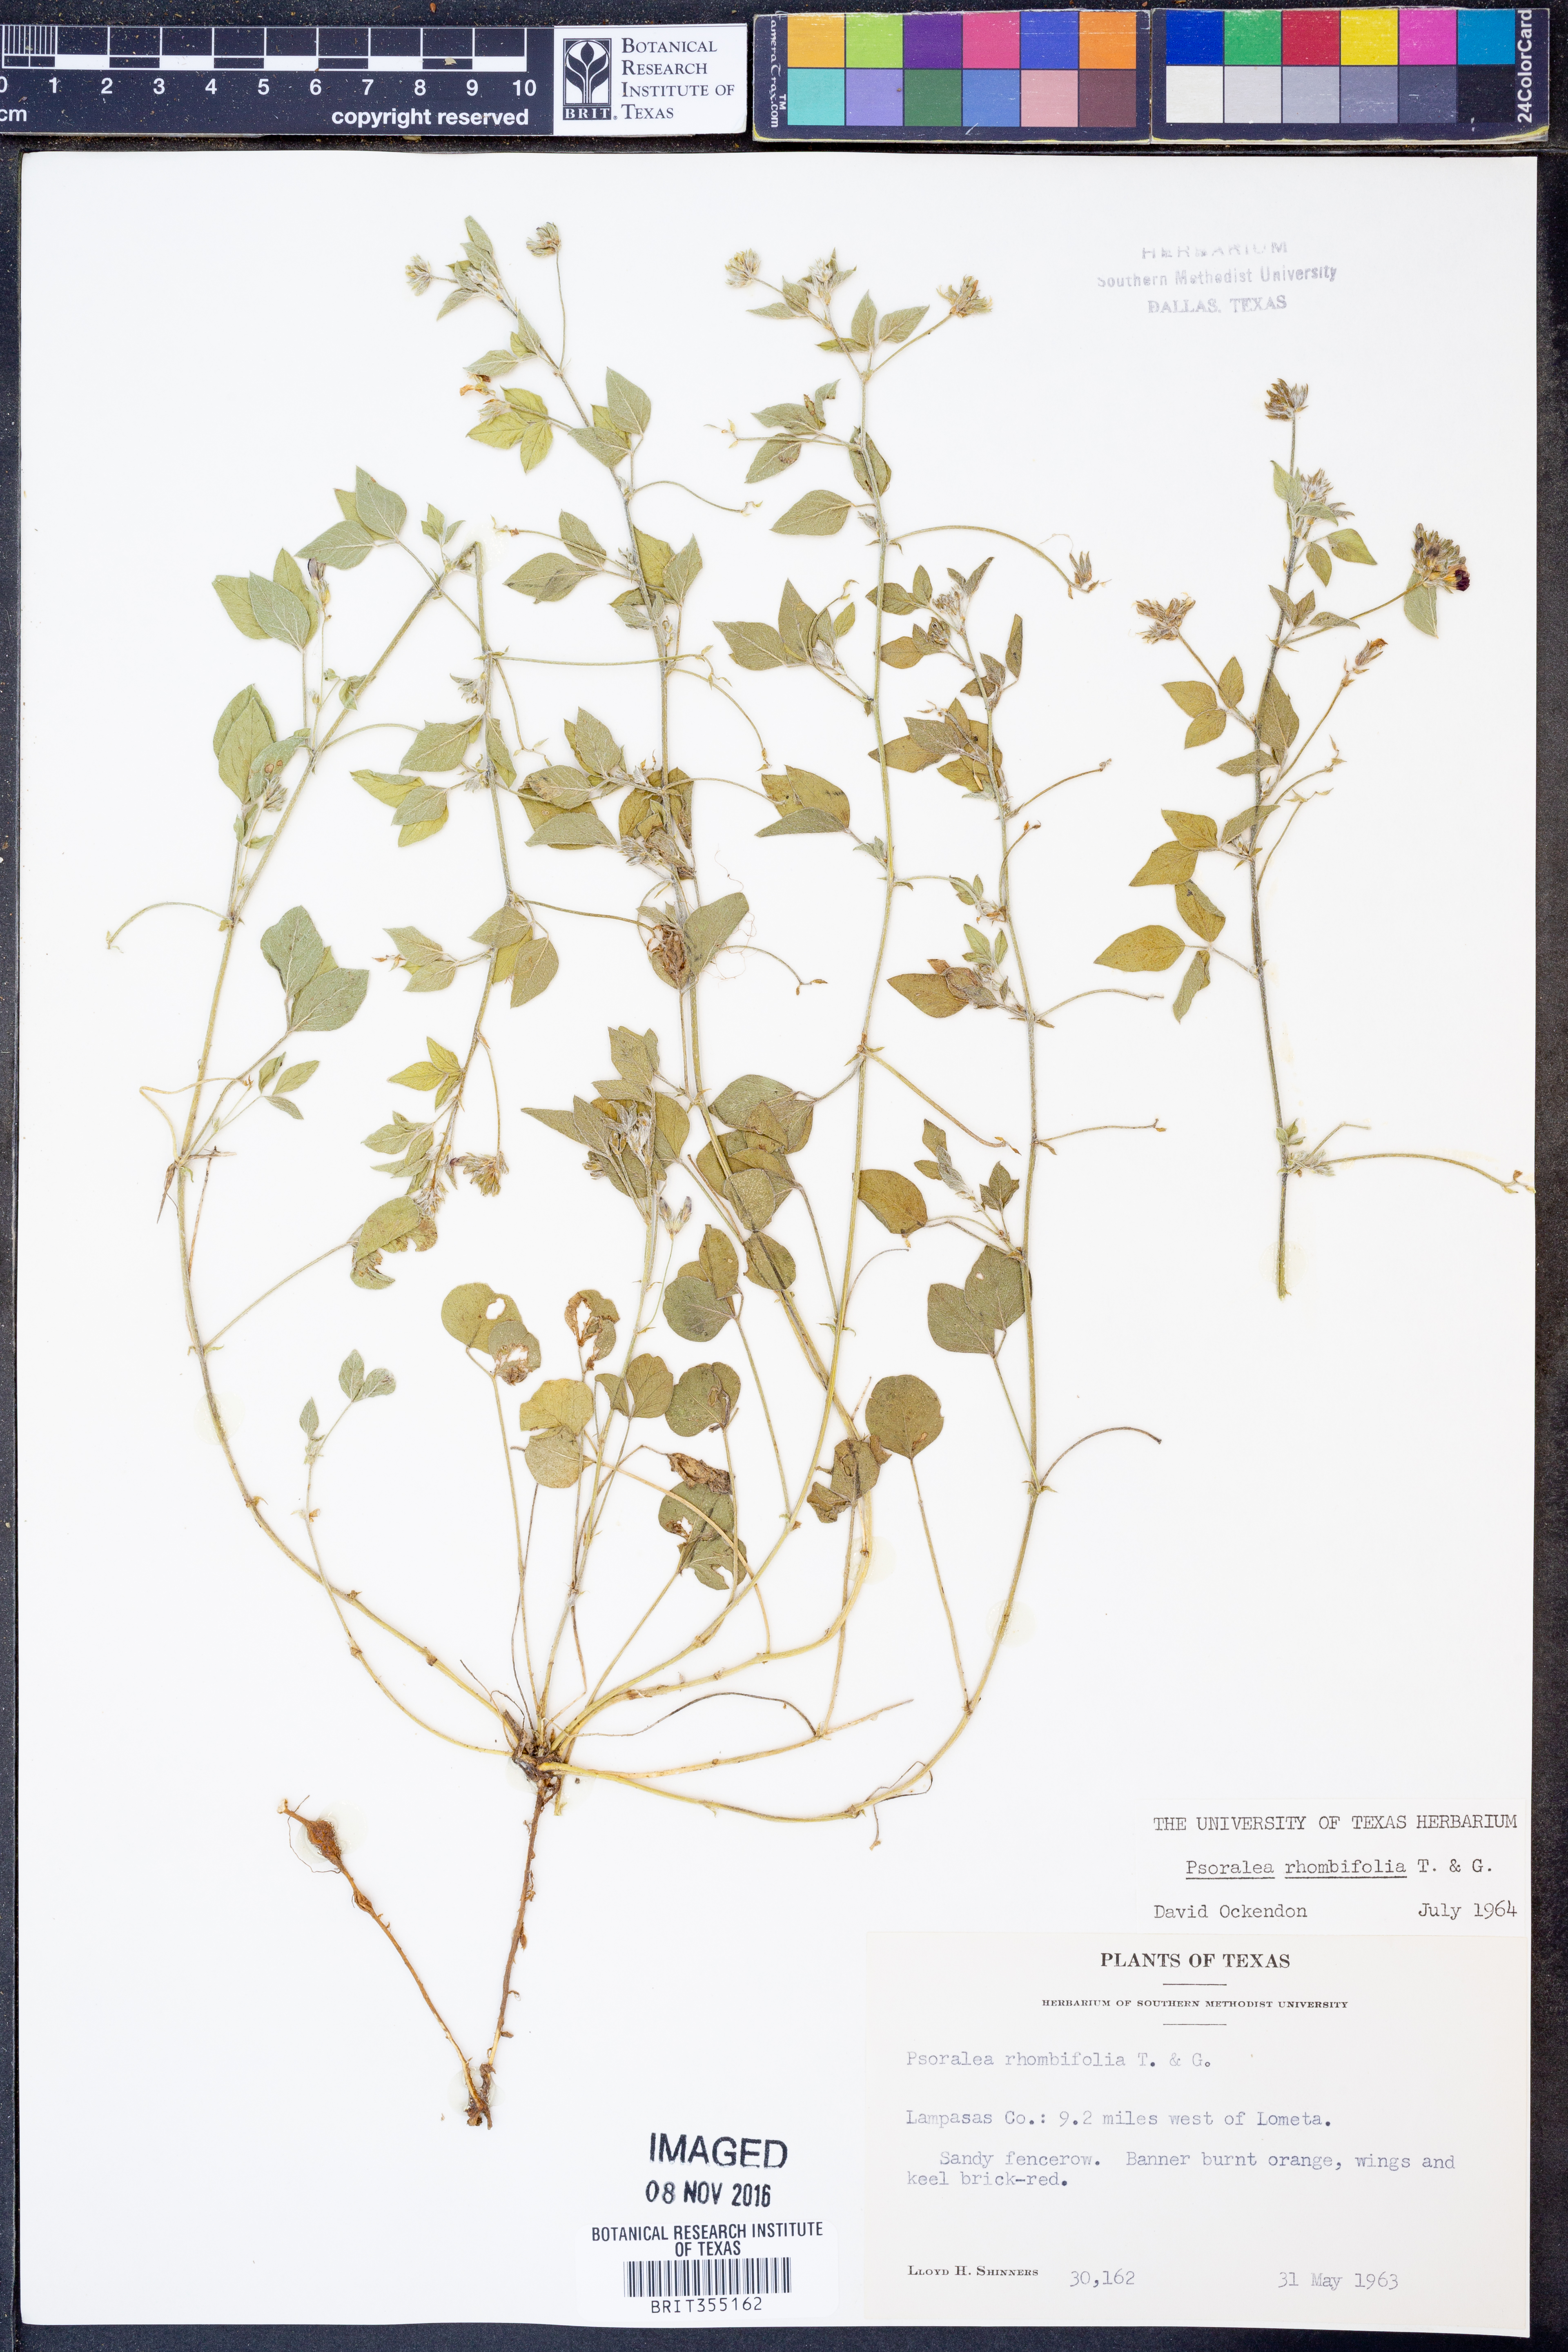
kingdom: Plantae
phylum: Tracheophyta
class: Magnoliopsida
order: Fabales
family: Fabaceae
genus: Pediomelum
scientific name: Pediomelum rhombifolium
